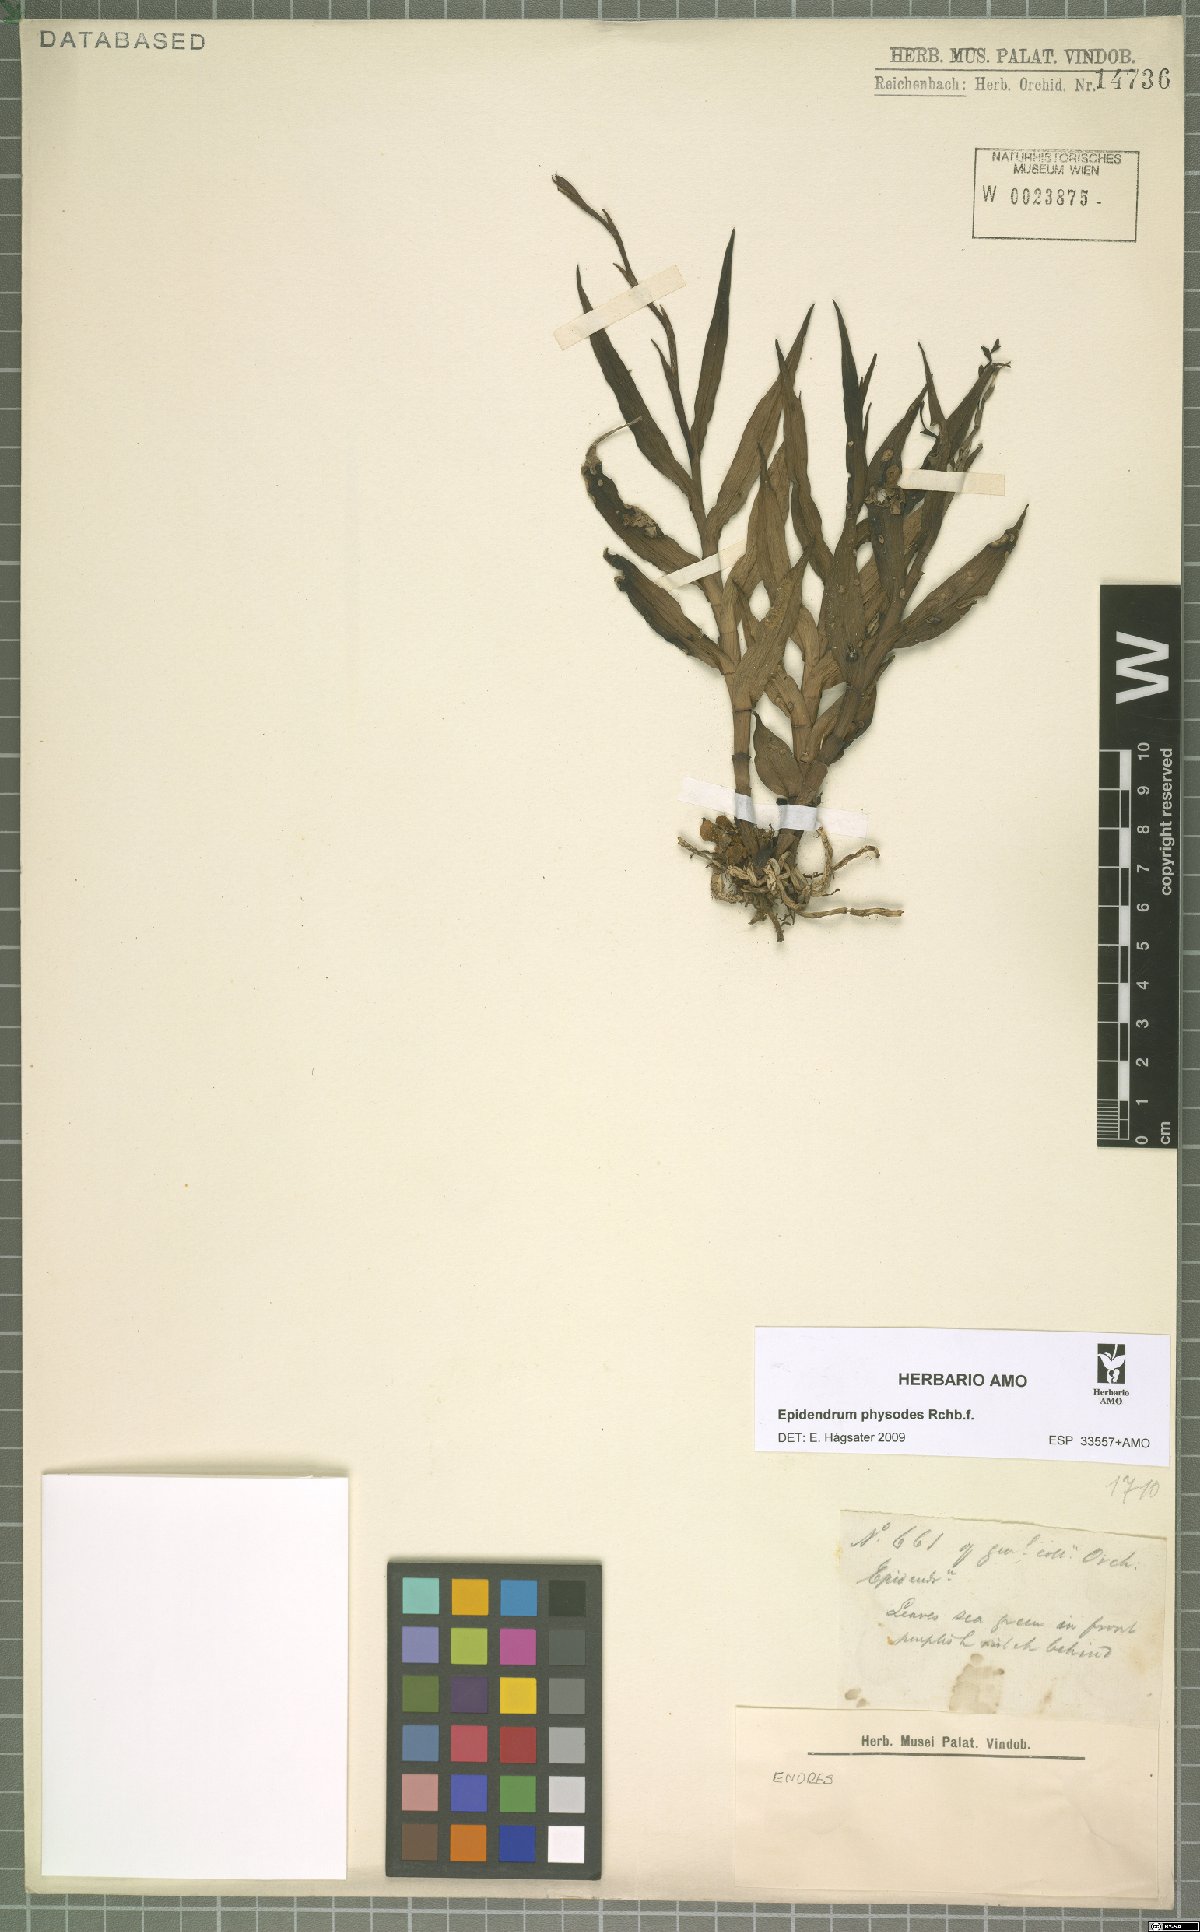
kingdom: Plantae
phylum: Tracheophyta
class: Liliopsida
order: Asparagales
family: Orchidaceae
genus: Epidendrum
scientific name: Epidendrum physodes
